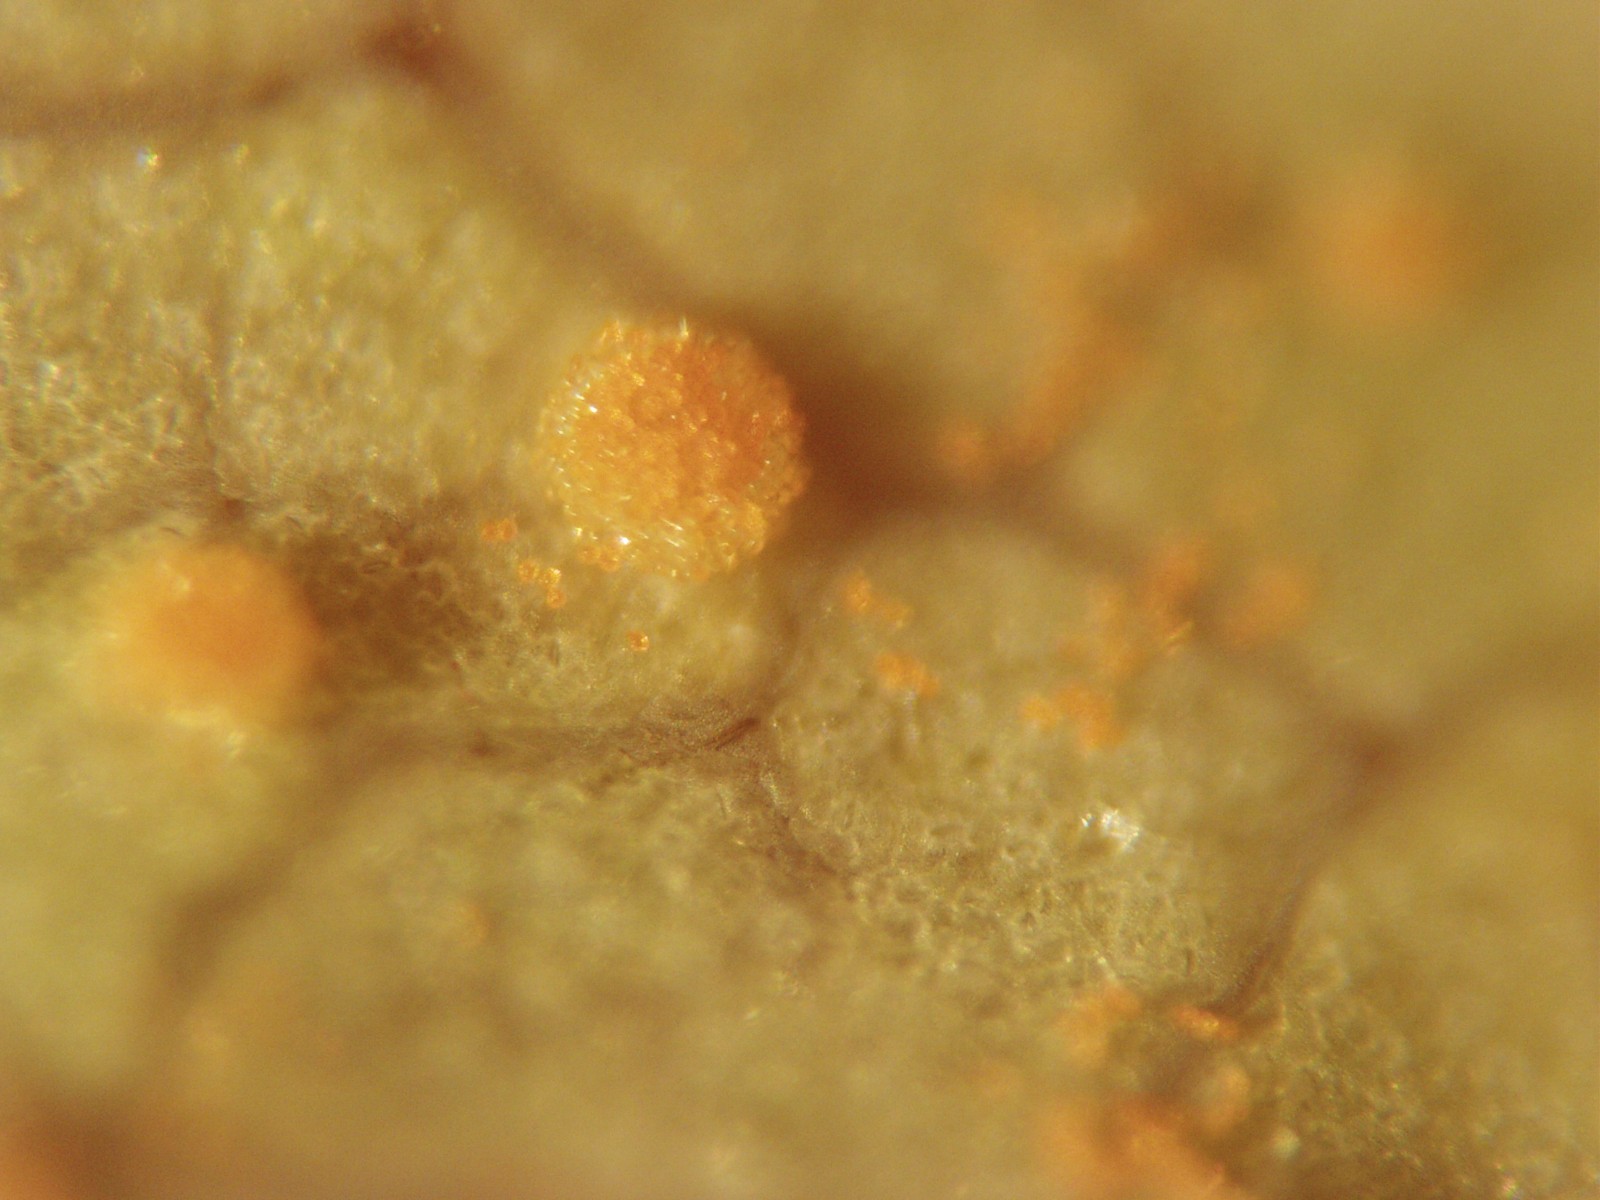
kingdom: Fungi
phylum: Basidiomycota
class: Pucciniomycetes
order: Pucciniales
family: Phragmidiaceae
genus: Phragmidium
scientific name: Phragmidium sanguisorbae
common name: Salad burnet rust
